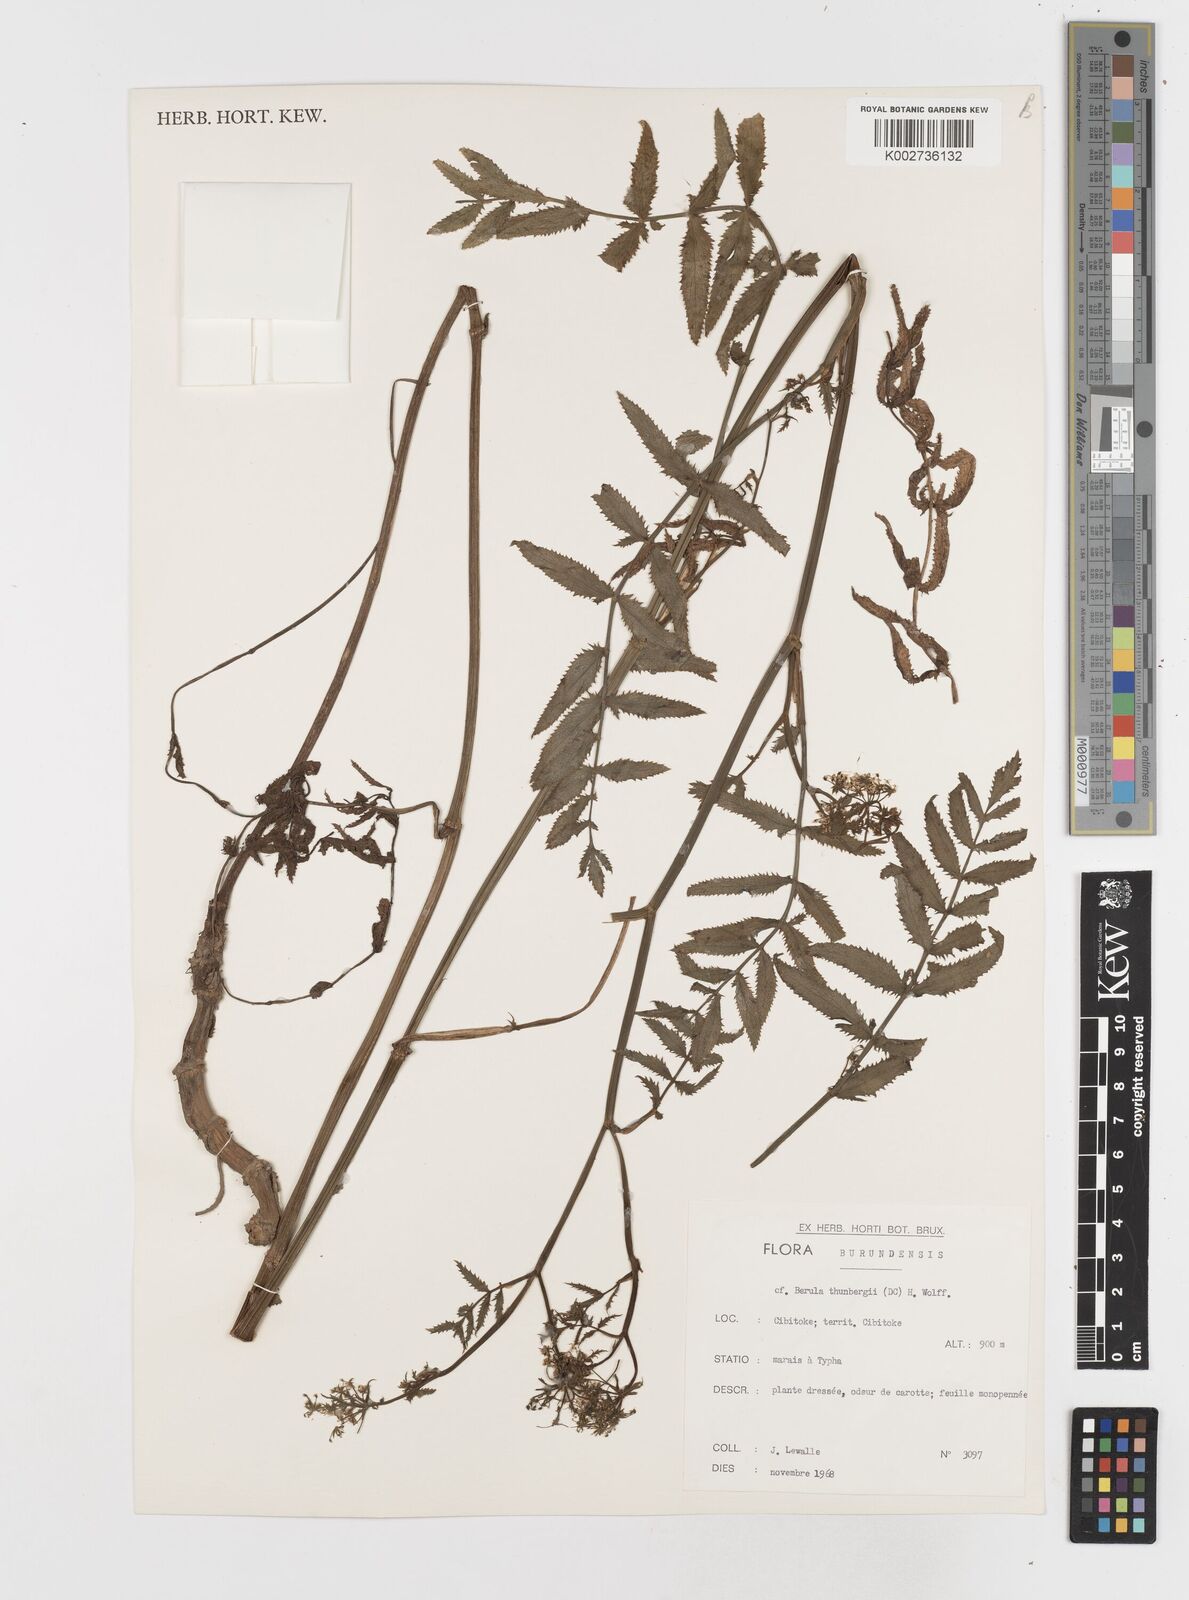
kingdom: Plantae
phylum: Tracheophyta
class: Magnoliopsida
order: Apiales
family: Apiaceae
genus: Berula
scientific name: Berula erecta
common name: Lesser water-parsnip
